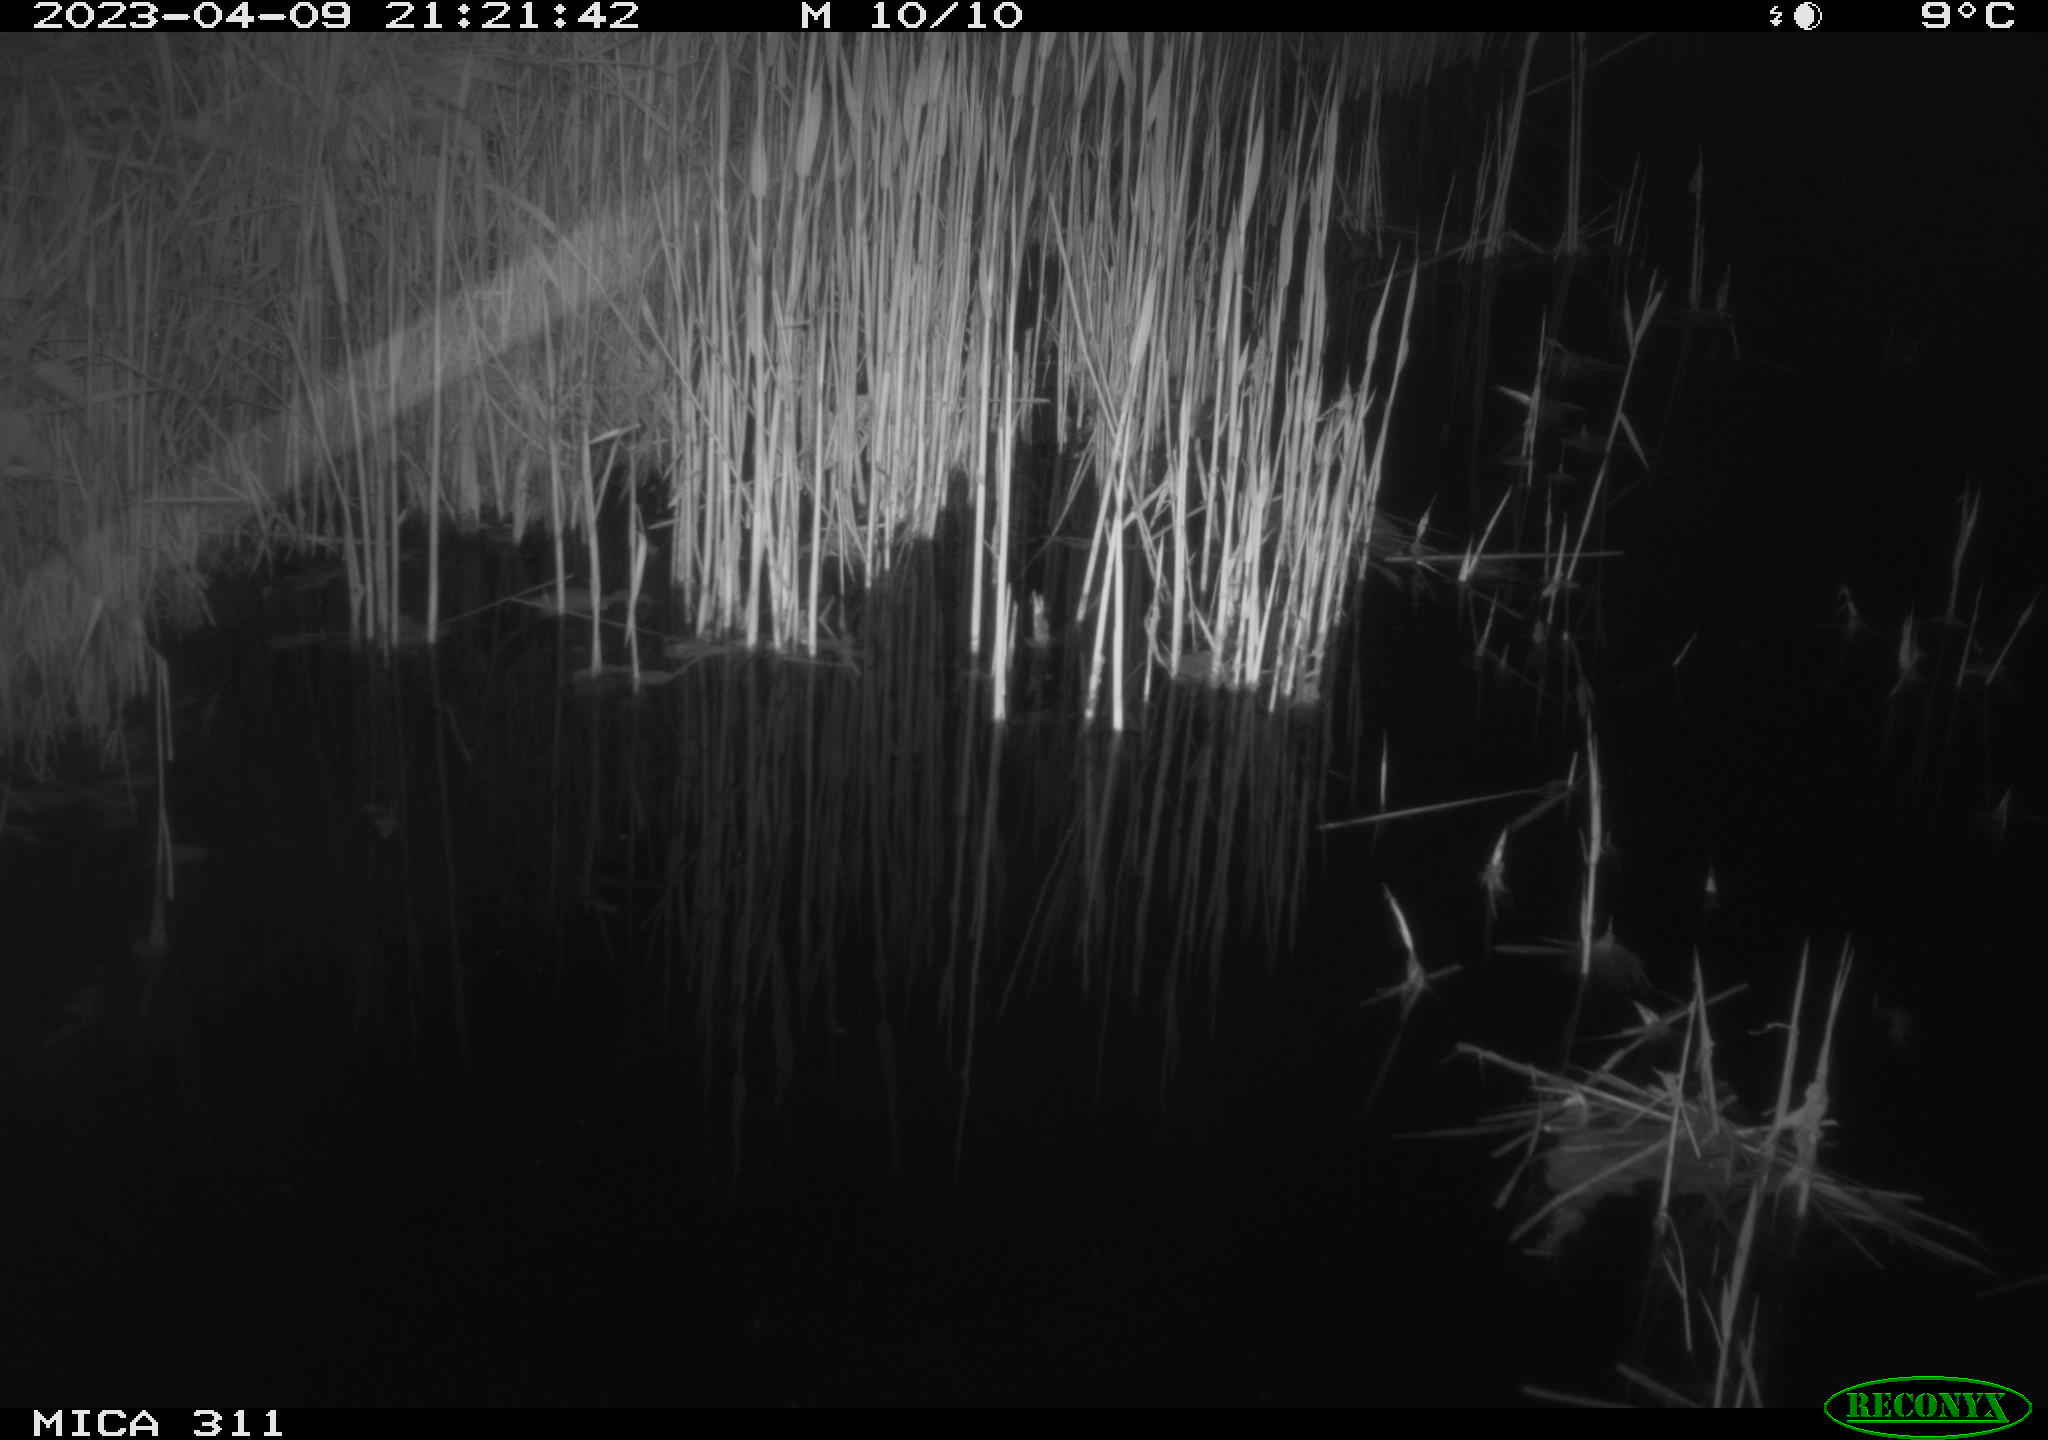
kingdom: Animalia
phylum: Chordata
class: Aves
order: Anseriformes
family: Anatidae
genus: Anas
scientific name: Anas
